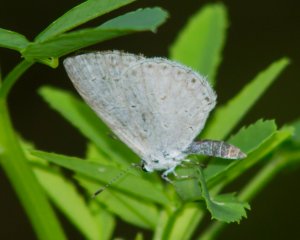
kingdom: Animalia
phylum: Arthropoda
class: Insecta
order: Lepidoptera
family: Lycaenidae
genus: Celastrina
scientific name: Celastrina
